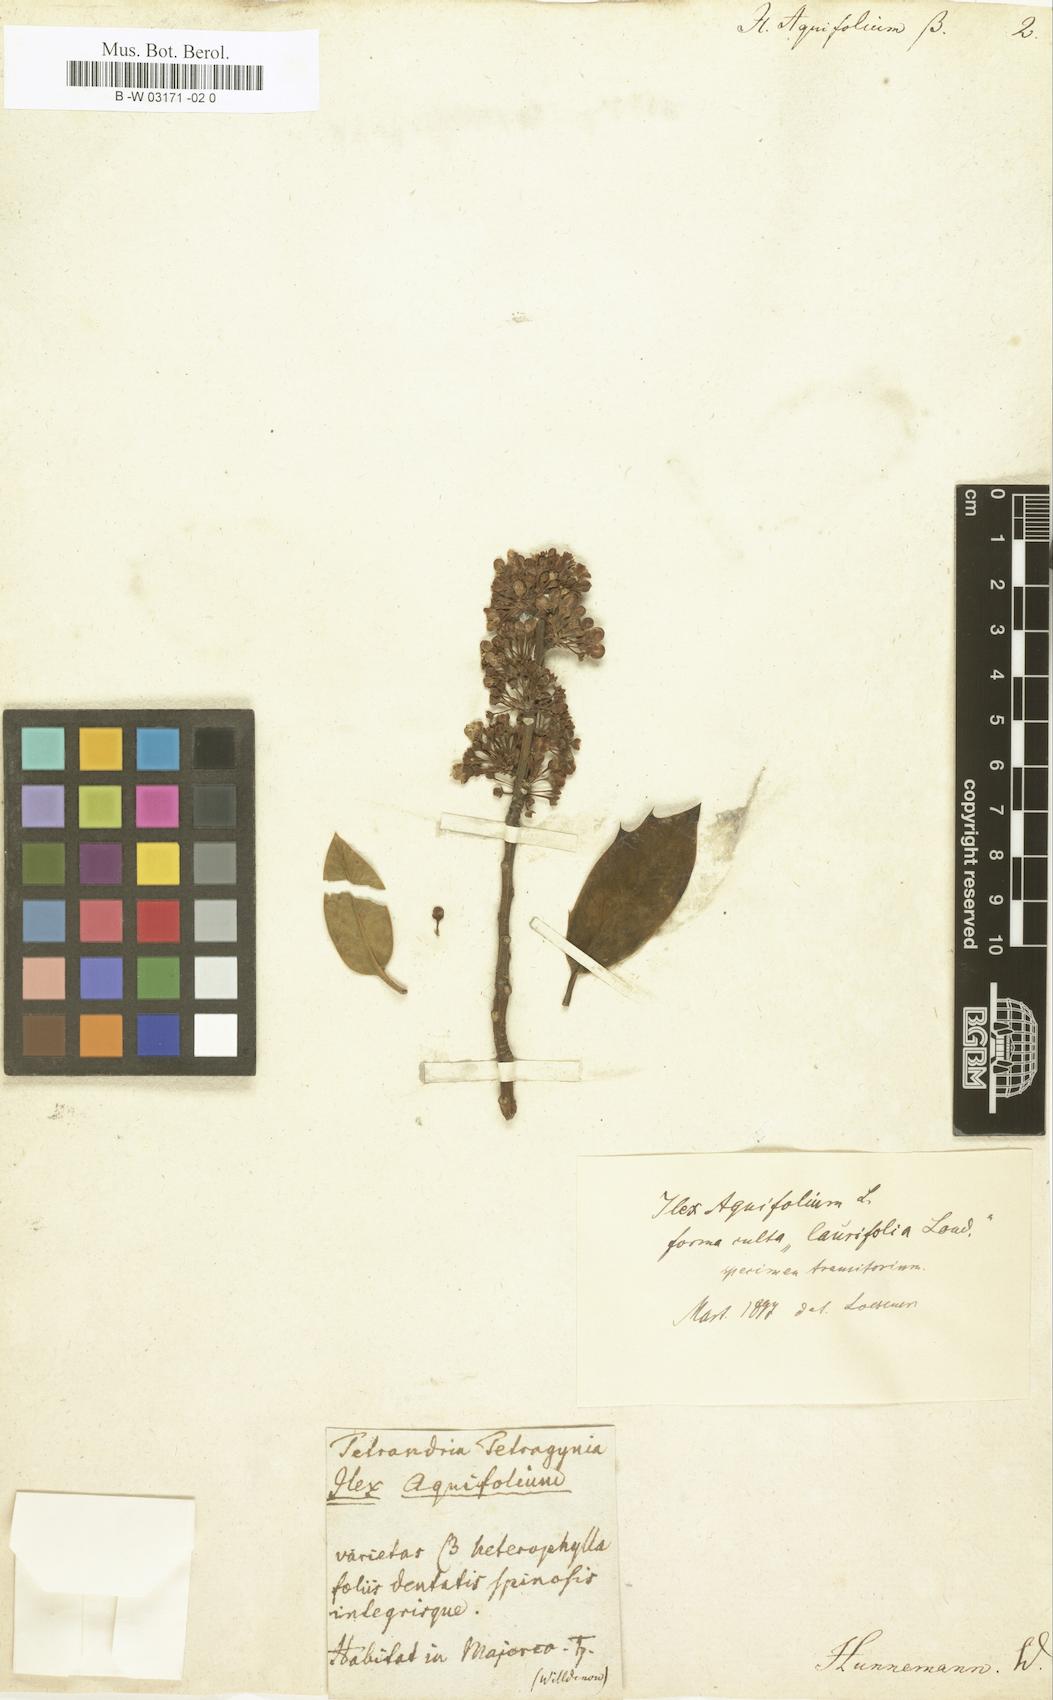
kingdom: Plantae
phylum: Tracheophyta
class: Magnoliopsida
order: Aquifoliales
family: Aquifoliaceae
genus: Ilex
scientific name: Ilex aquifolium
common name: English holly
